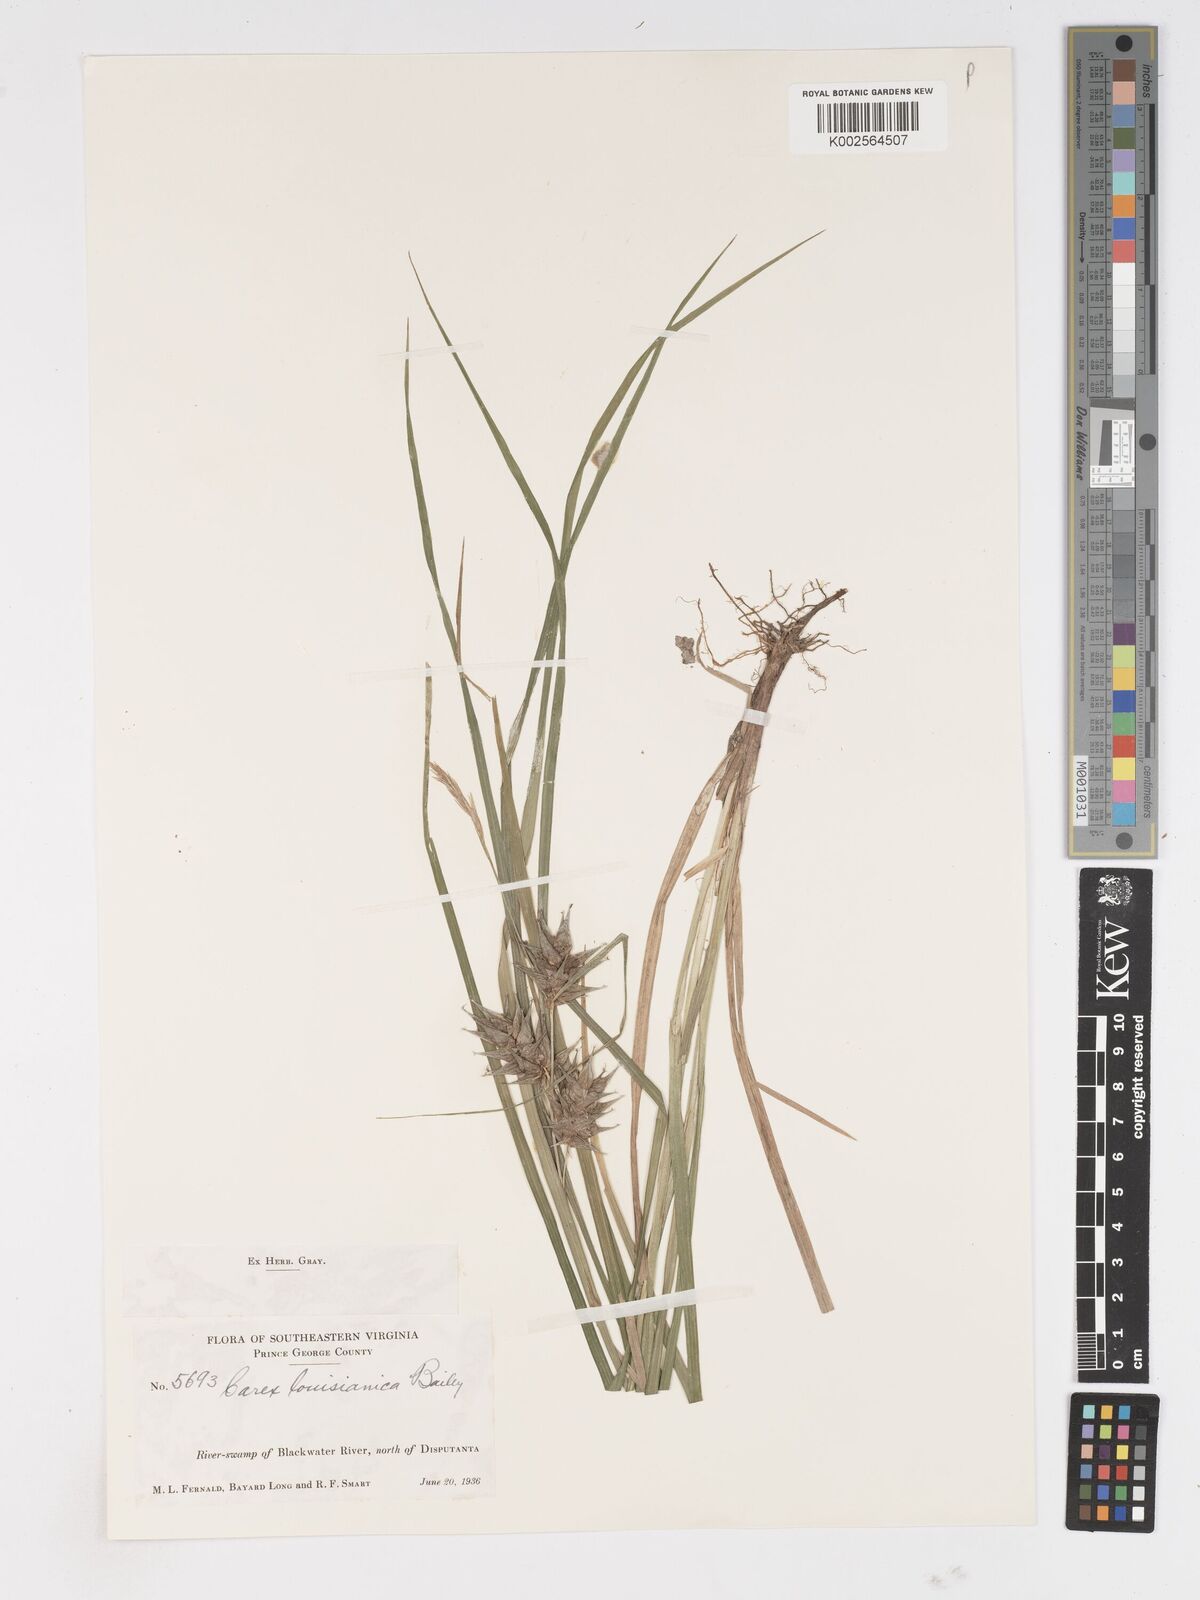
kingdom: Plantae
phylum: Tracheophyta
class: Liliopsida
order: Poales
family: Cyperaceae
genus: Carex
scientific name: Carex louisianica
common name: Louisiana sedge
